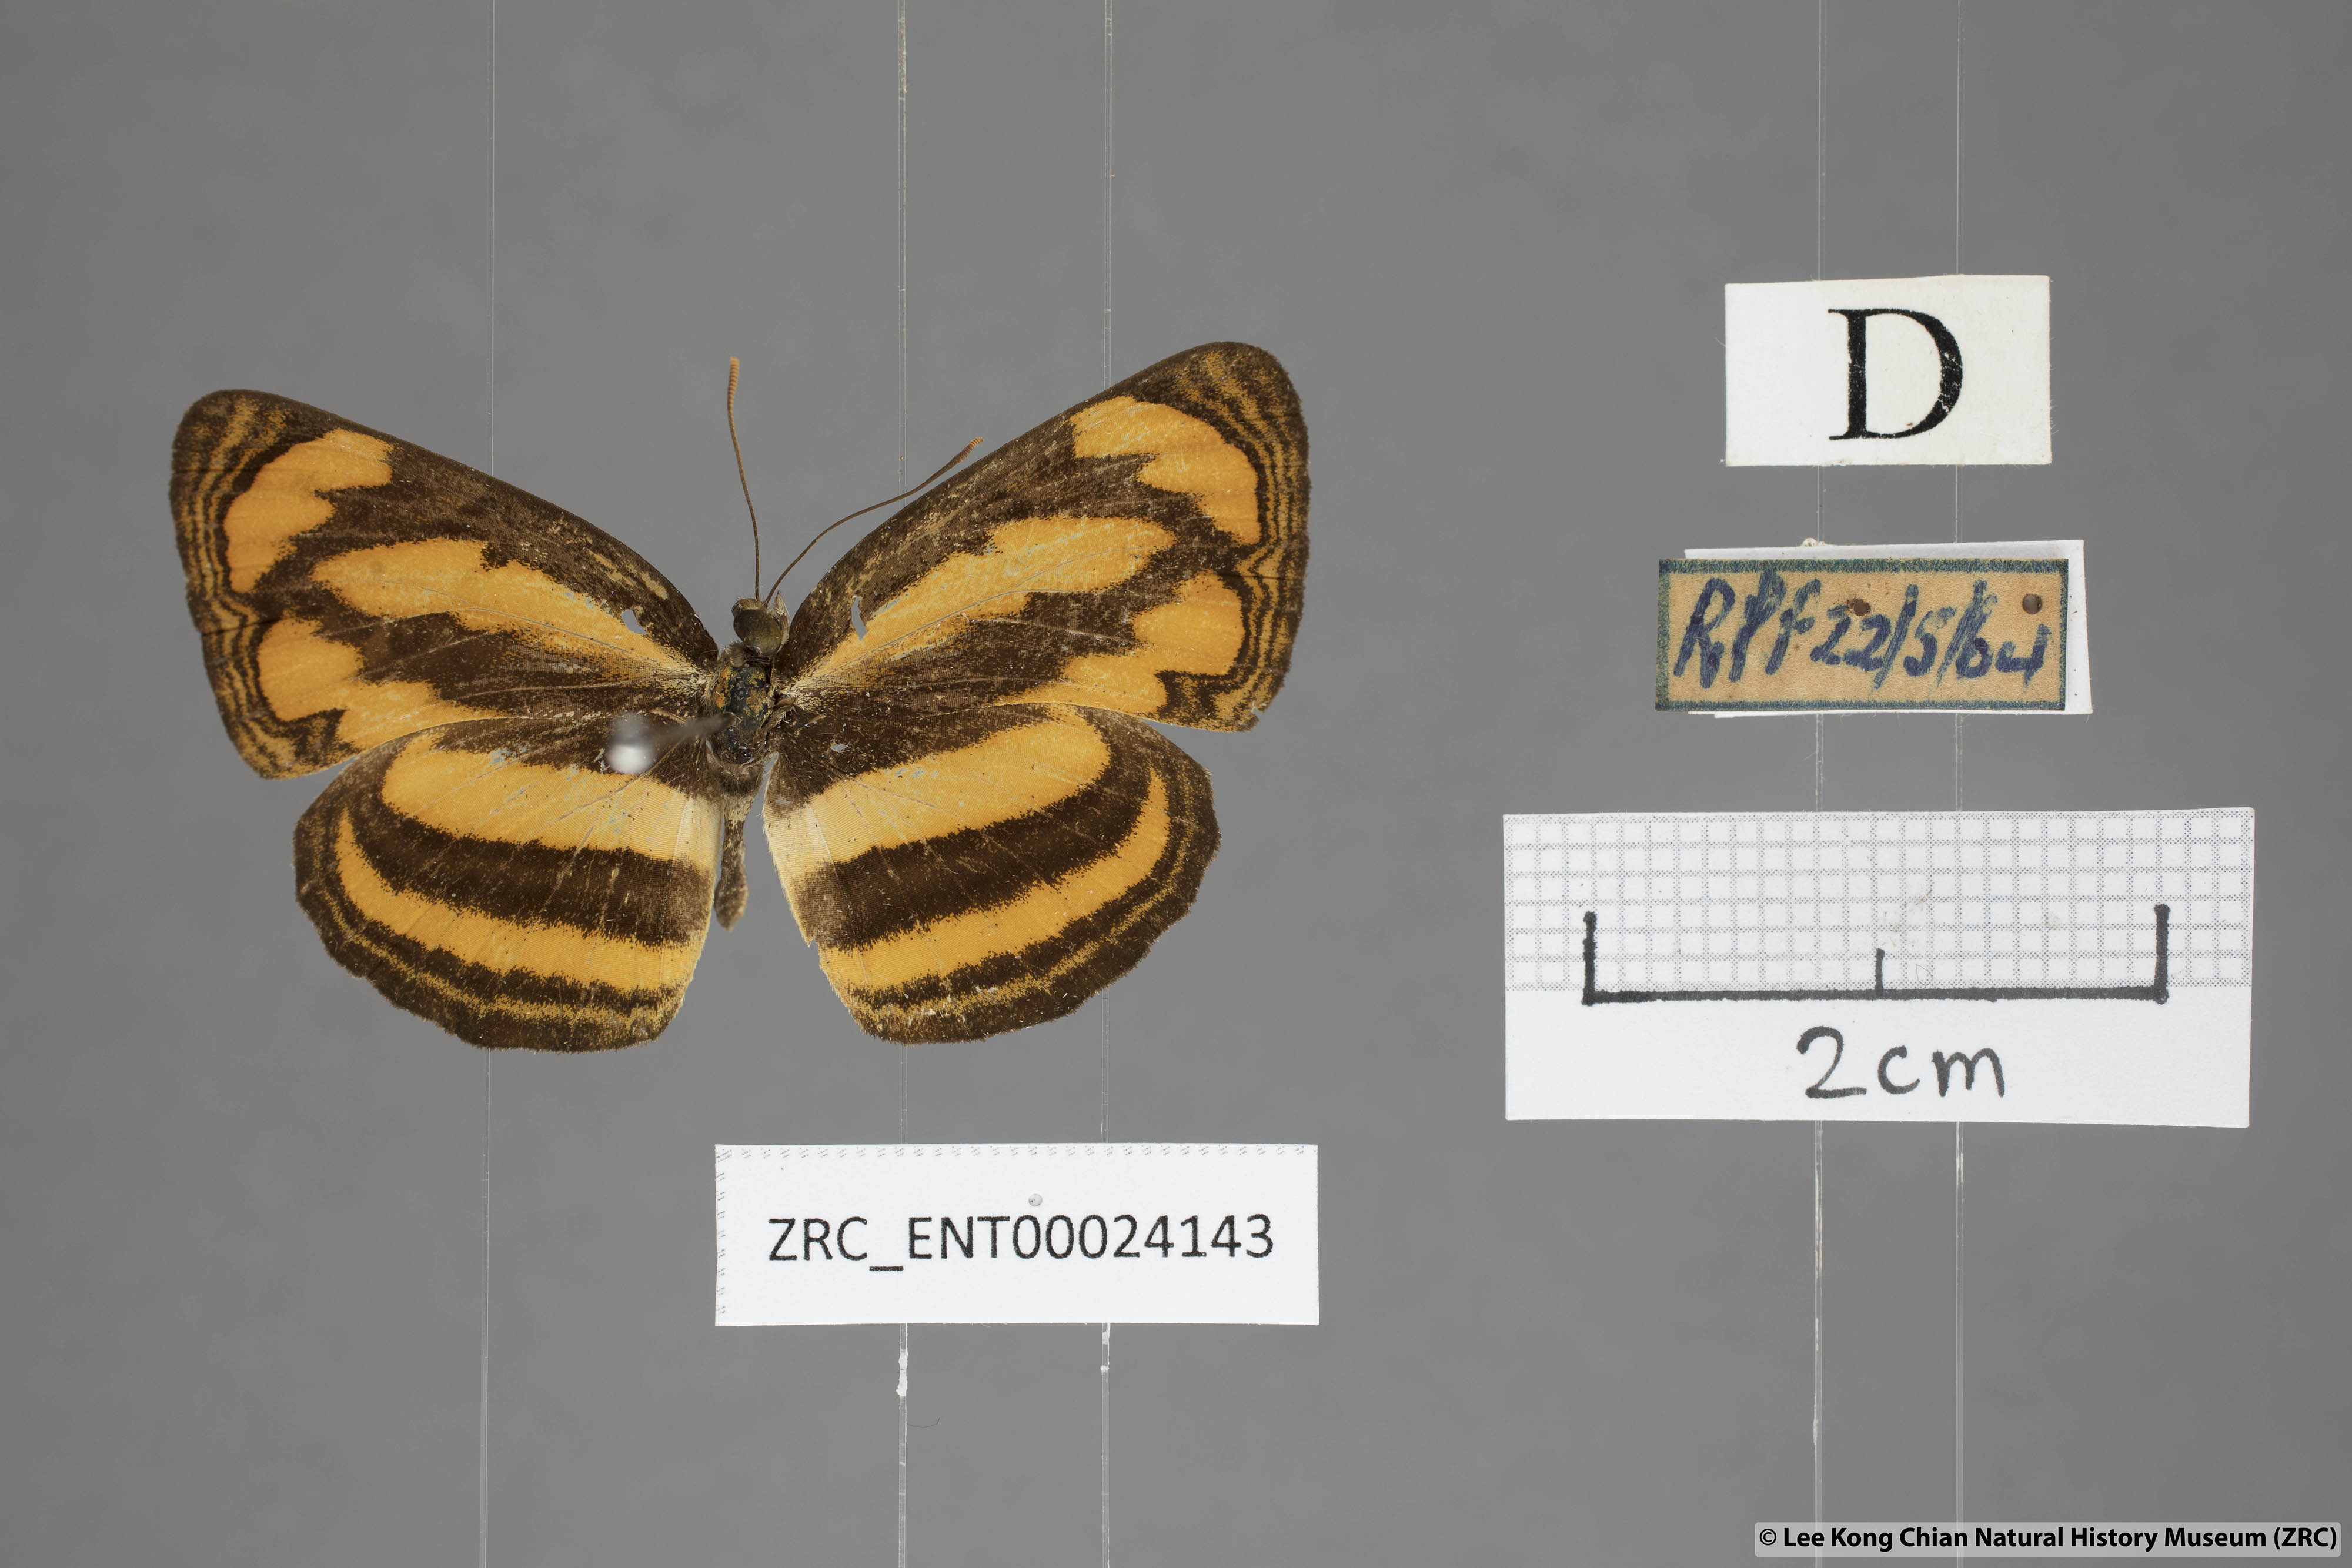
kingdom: Animalia
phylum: Arthropoda
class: Insecta
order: Lepidoptera
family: Nymphalidae
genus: Pantoporia
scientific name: Pantoporia paraka
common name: Perak lascar
